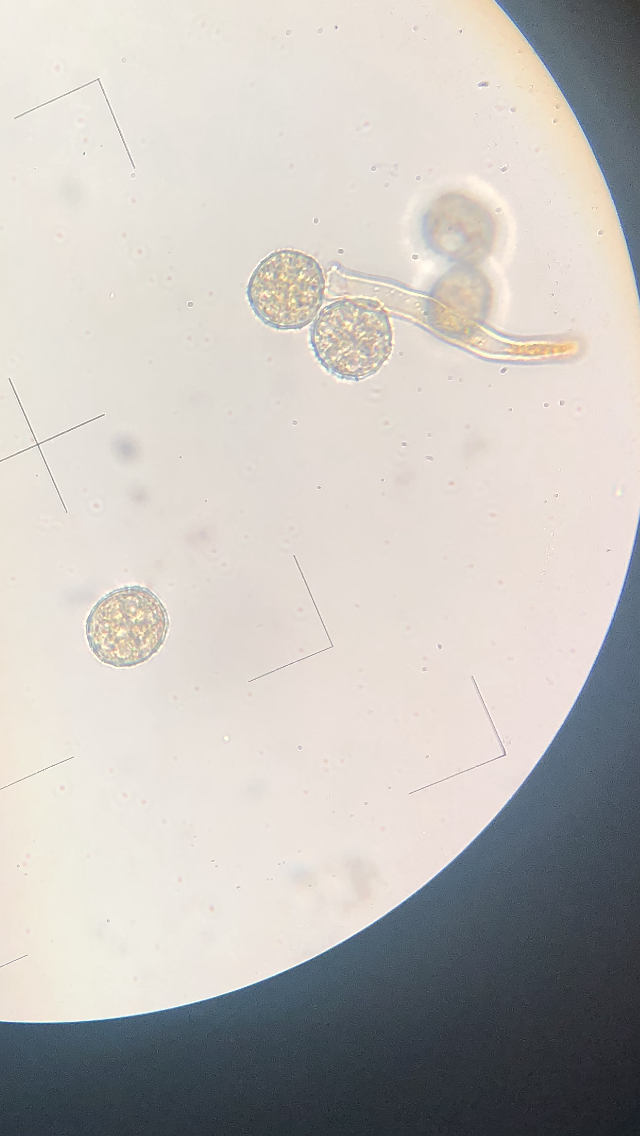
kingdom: Fungi
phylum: Basidiomycota
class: Pucciniomycetes
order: Pucciniales
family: Phragmidiaceae
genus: Phragmidium
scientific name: Phragmidium rubi-idaei
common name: hindbær-flercellerust
